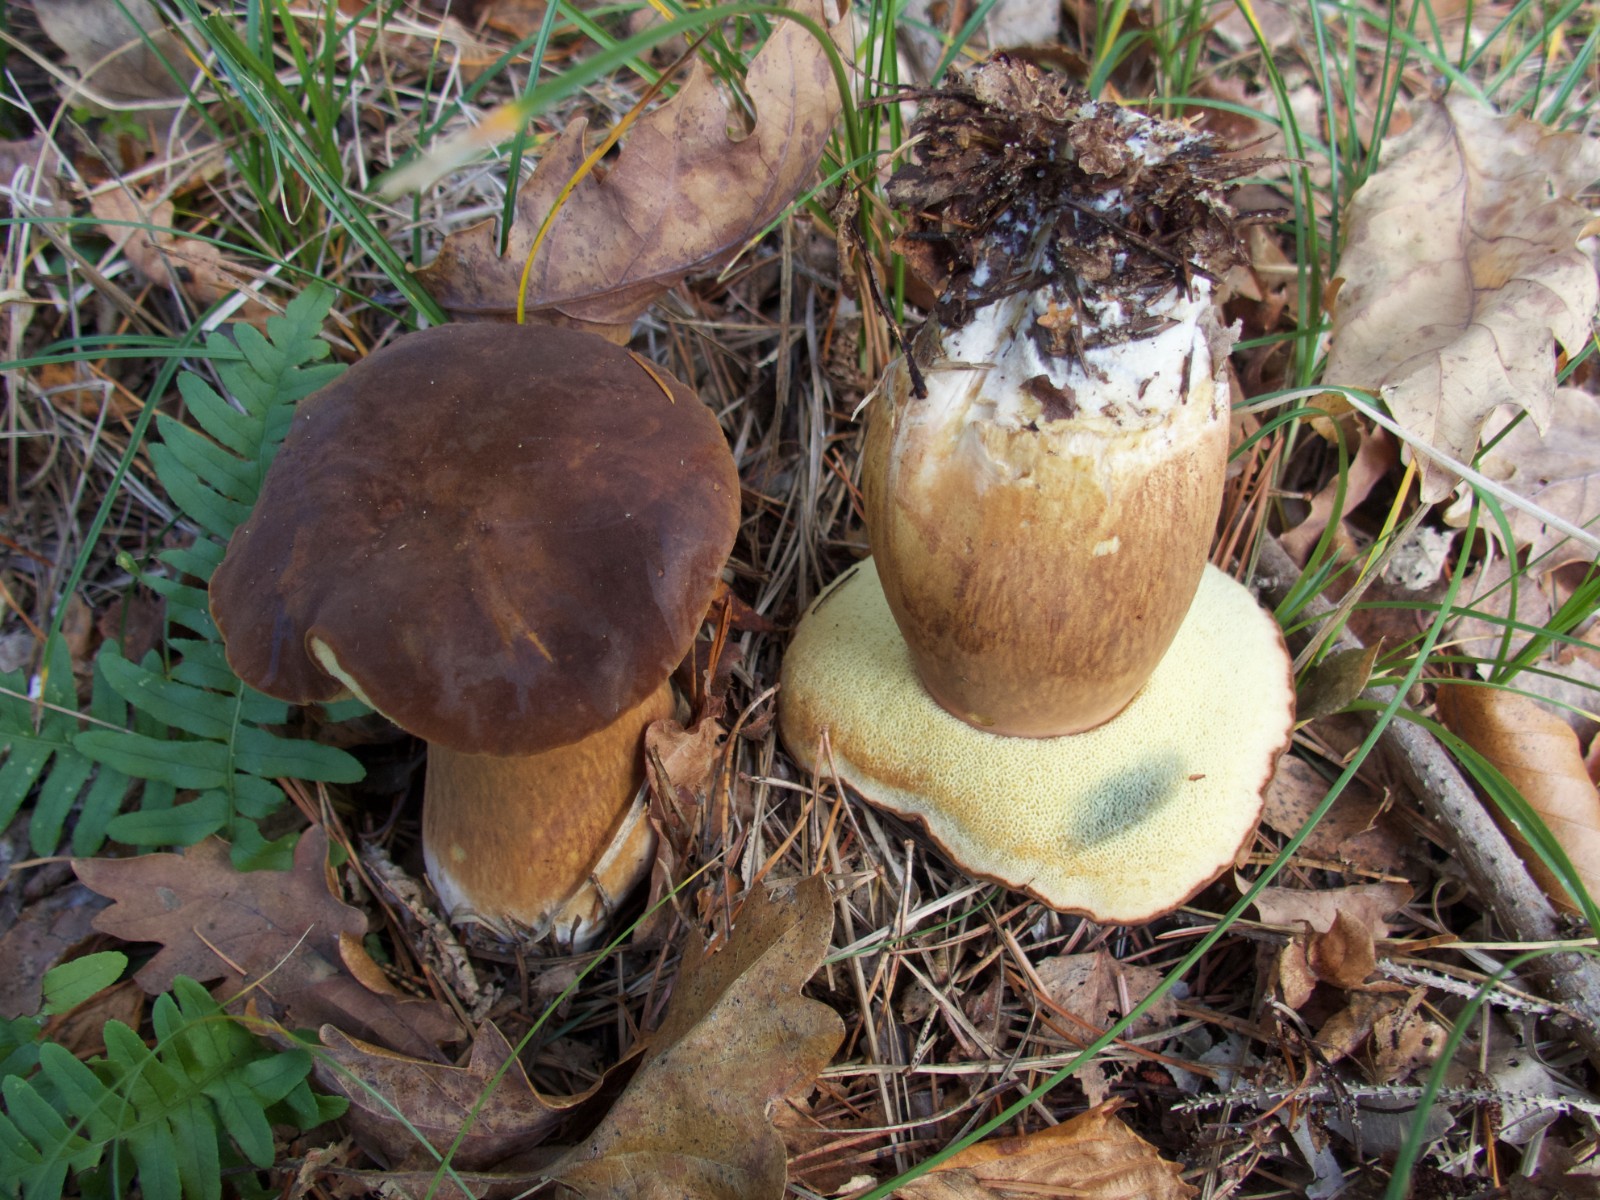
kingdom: Fungi
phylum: Basidiomycota
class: Agaricomycetes
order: Boletales
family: Boletaceae
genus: Imleria
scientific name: Imleria badia
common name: brunstokket rørhat
